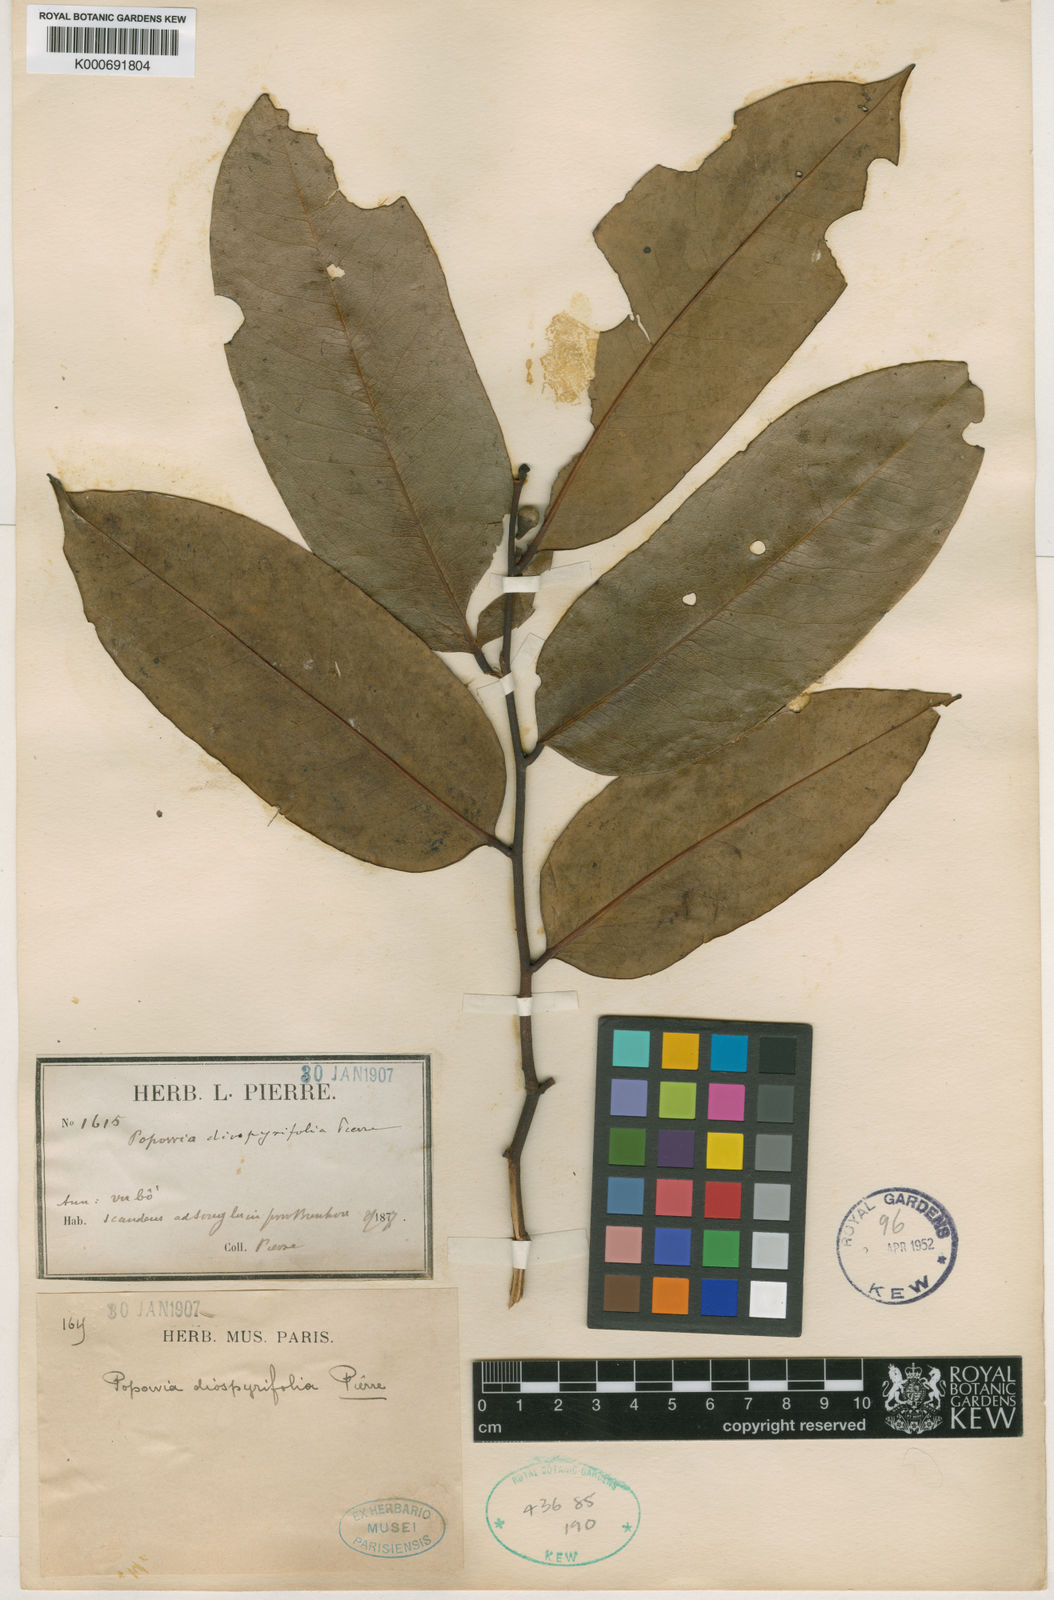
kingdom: Plantae
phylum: Tracheophyta
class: Magnoliopsida
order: Magnoliales
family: Annonaceae
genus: Sphaerocoryne
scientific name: Sphaerocoryne affinis
